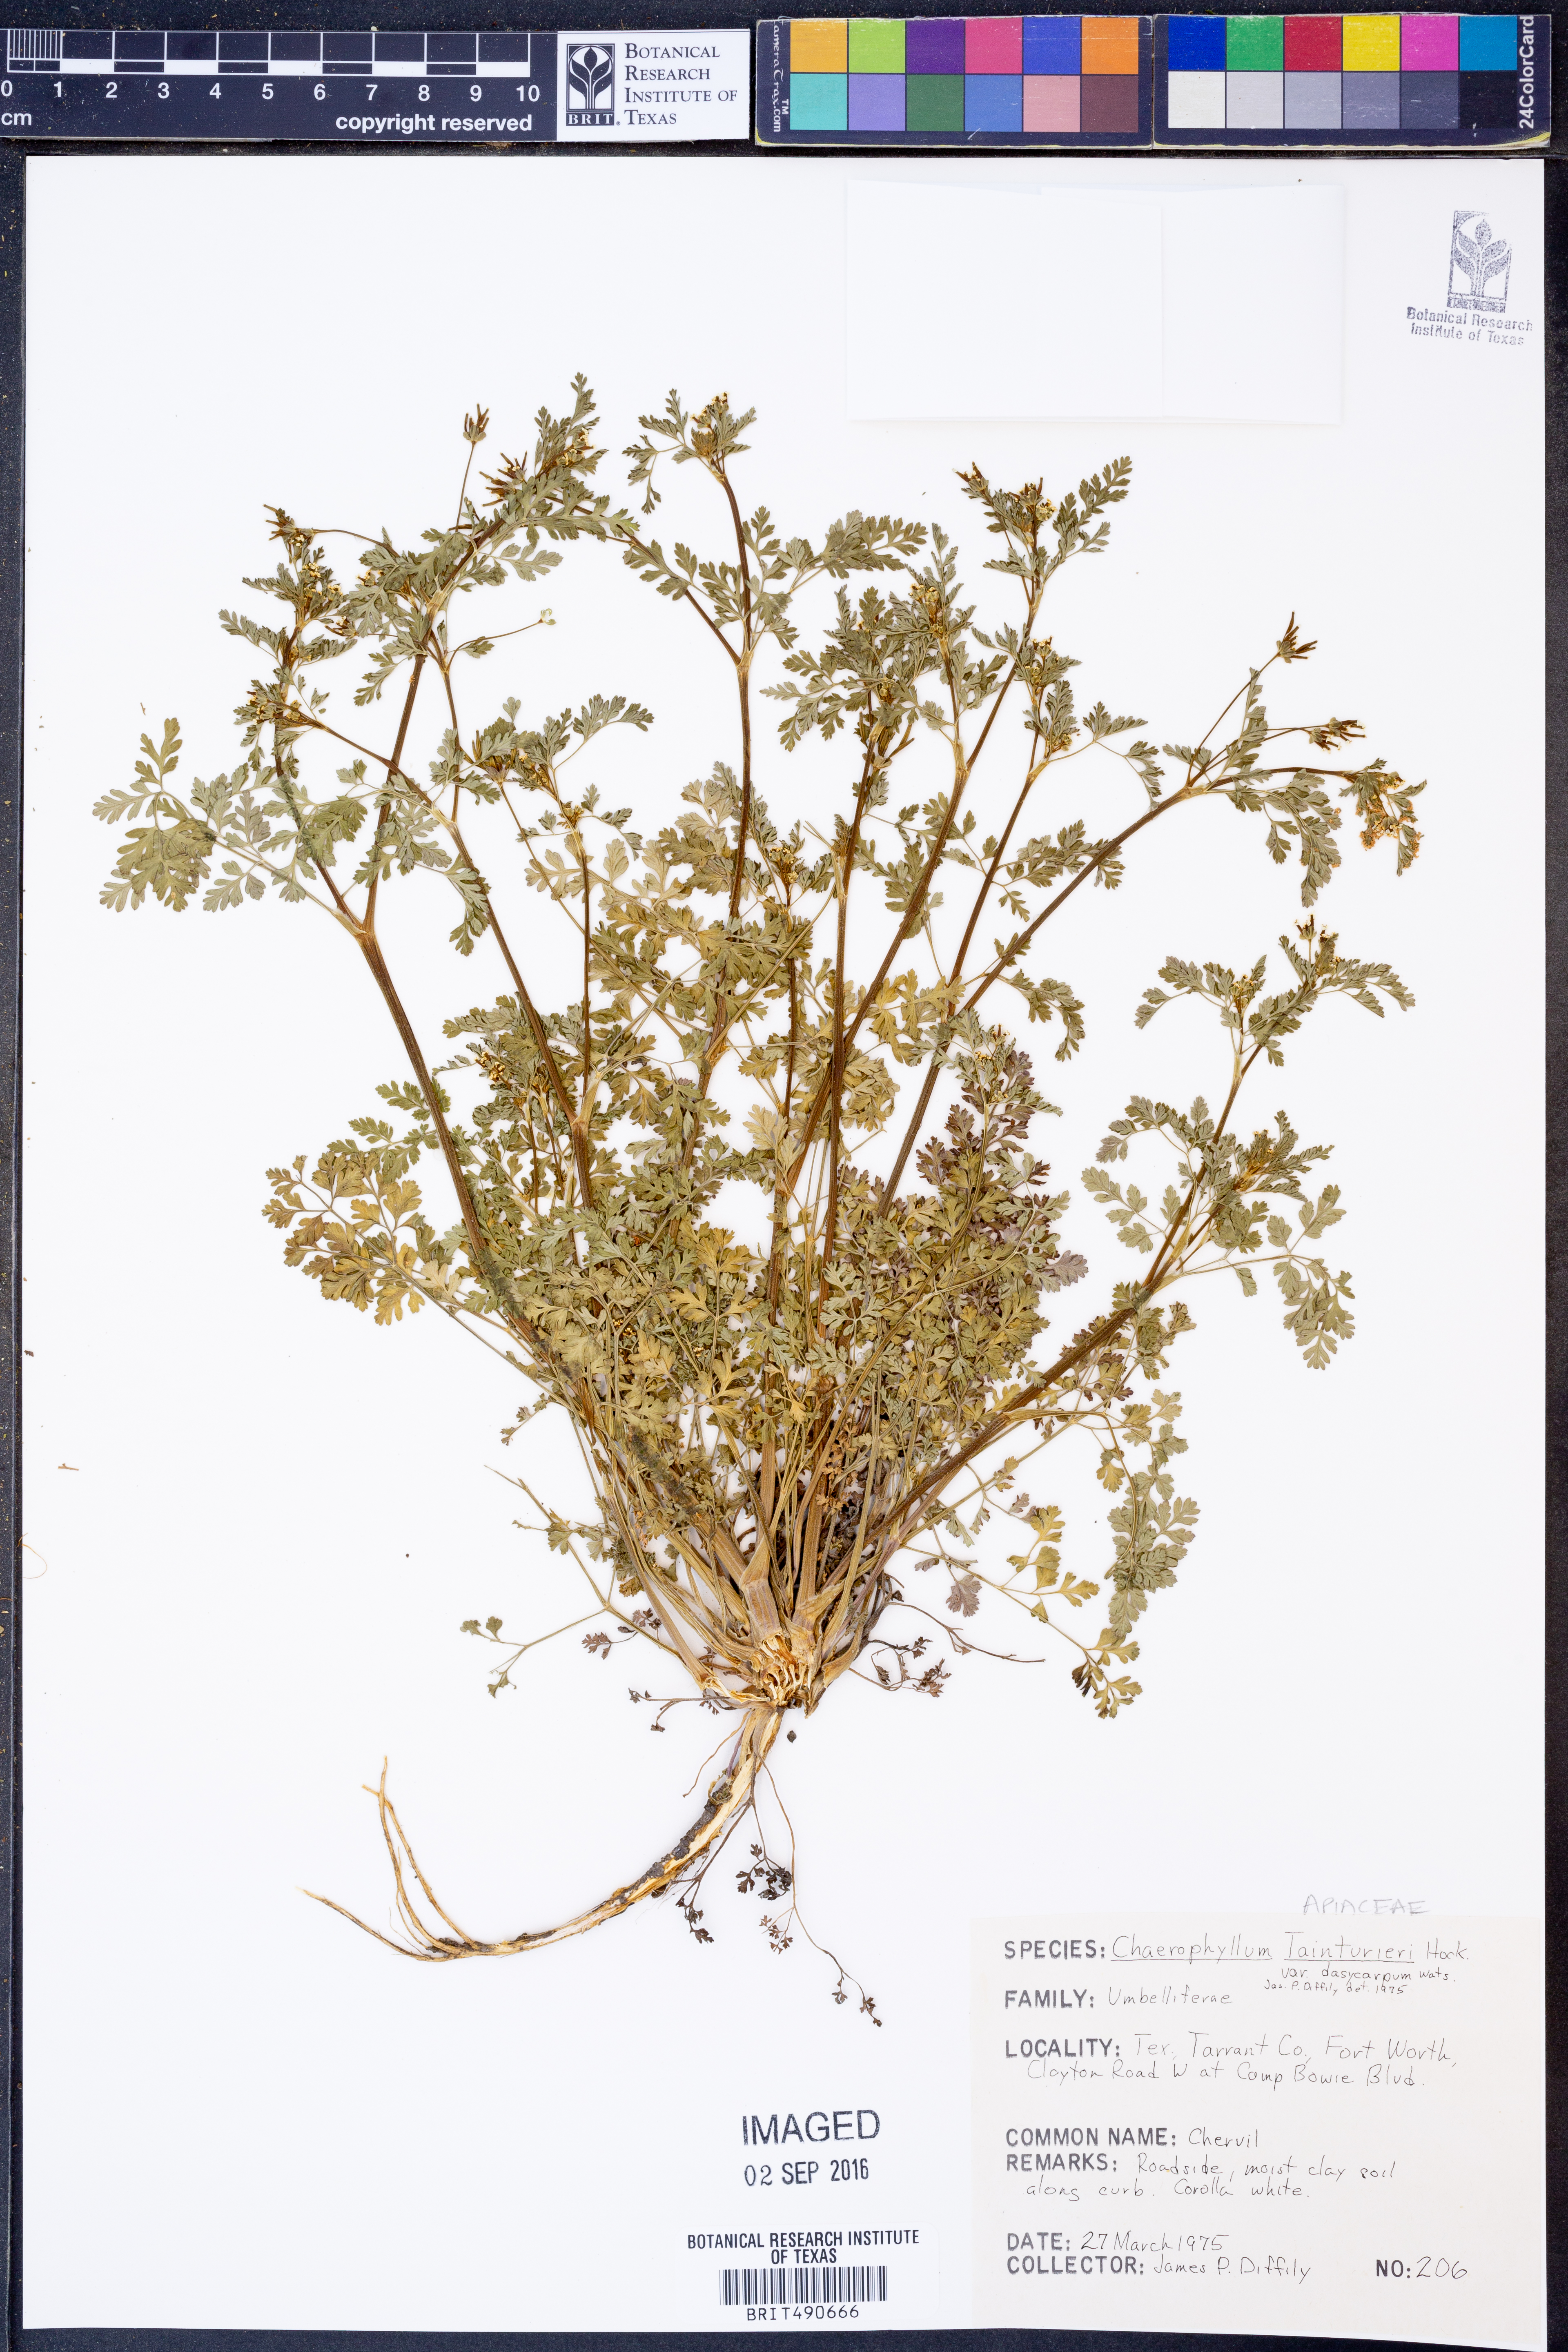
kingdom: Plantae
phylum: Tracheophyta
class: Magnoliopsida
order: Apiales
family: Apiaceae
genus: Chaerophyllum
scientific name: Chaerophyllum dasycarpum
